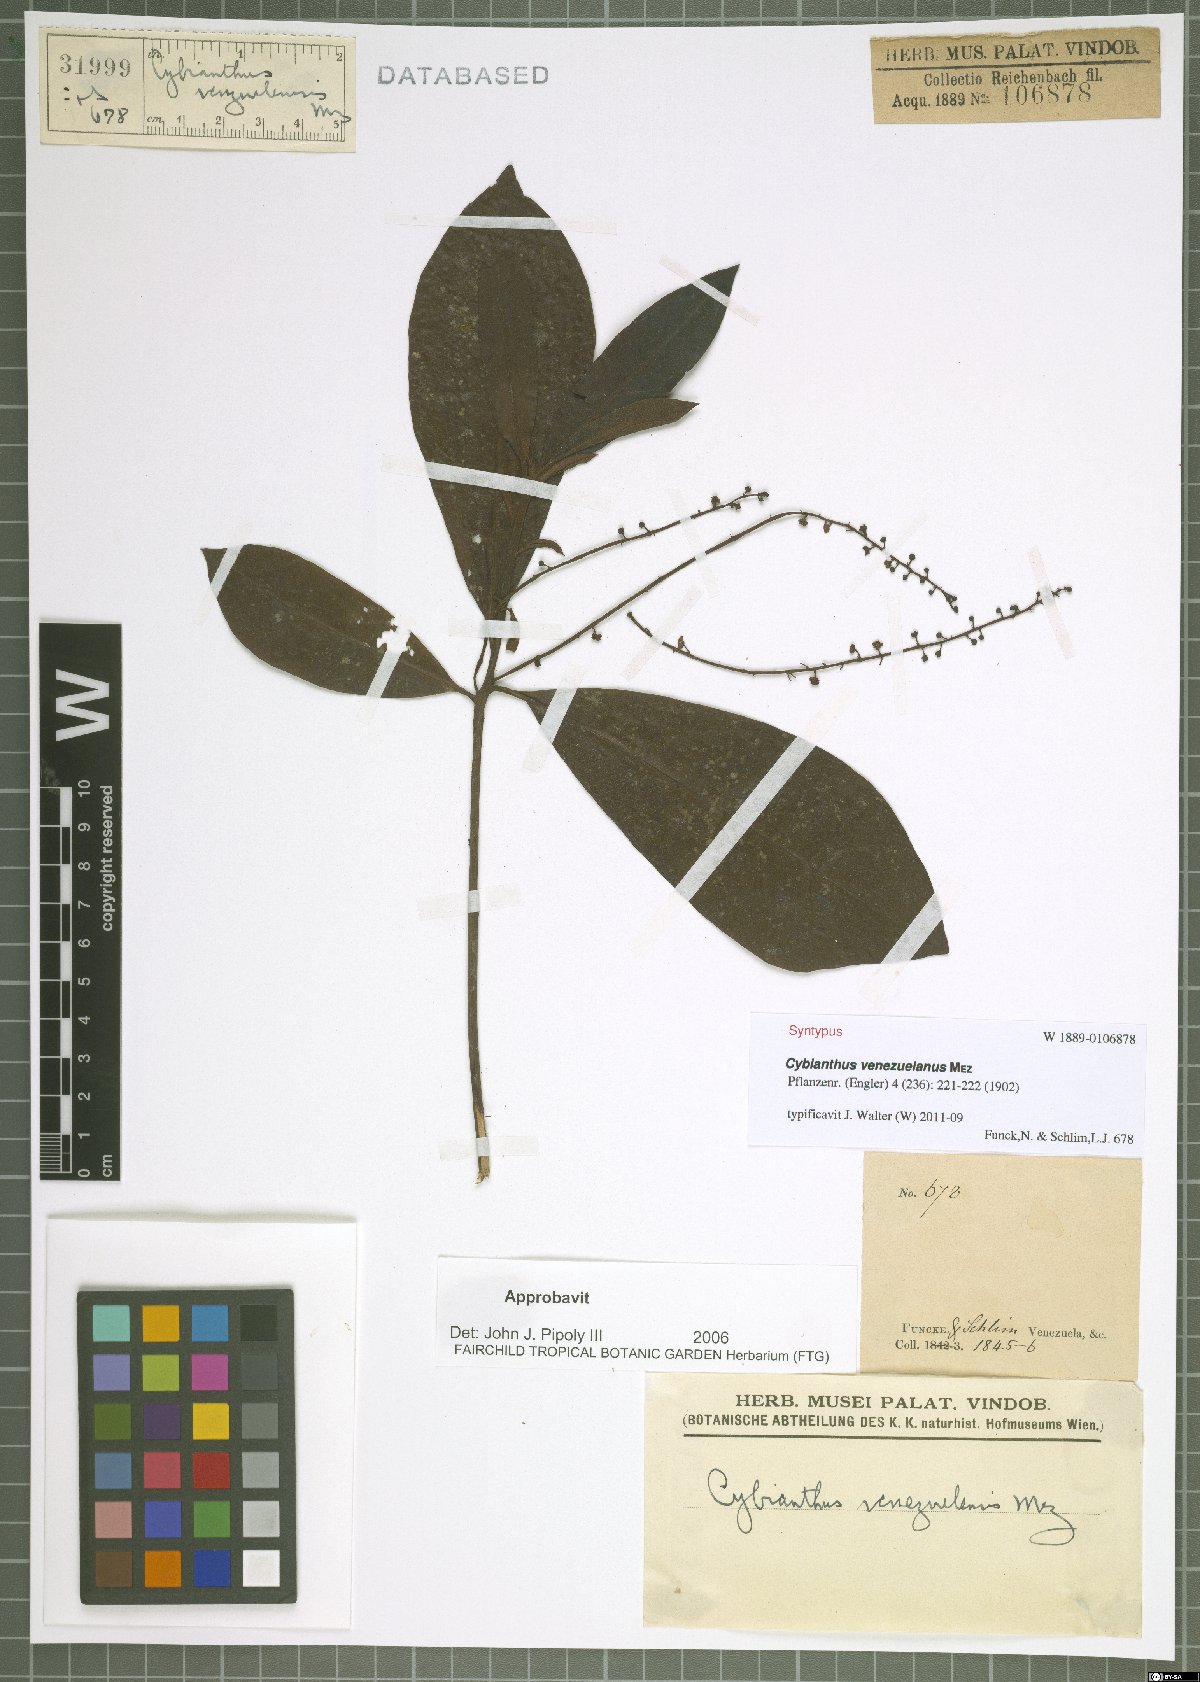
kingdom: Plantae
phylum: Tracheophyta
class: Magnoliopsida
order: Ericales
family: Primulaceae
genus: Cybianthus
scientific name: Cybianthus venezuelanus
